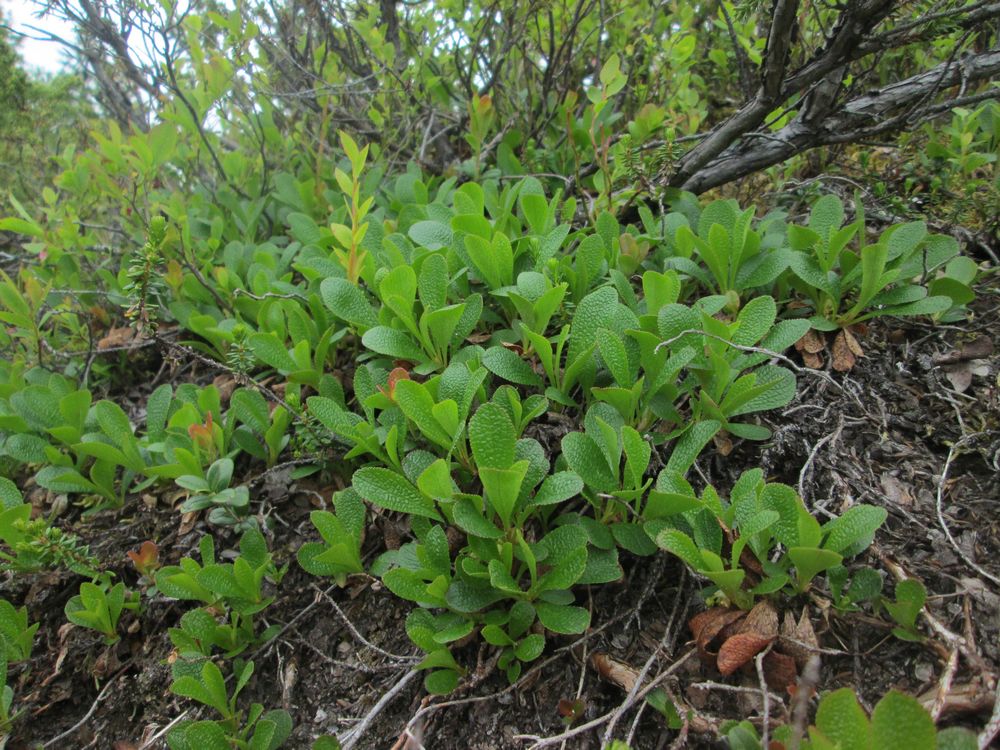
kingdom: Plantae
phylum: Tracheophyta
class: Magnoliopsida
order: Ericales
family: Ericaceae
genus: Arctostaphylos
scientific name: Arctostaphylos alpinus
